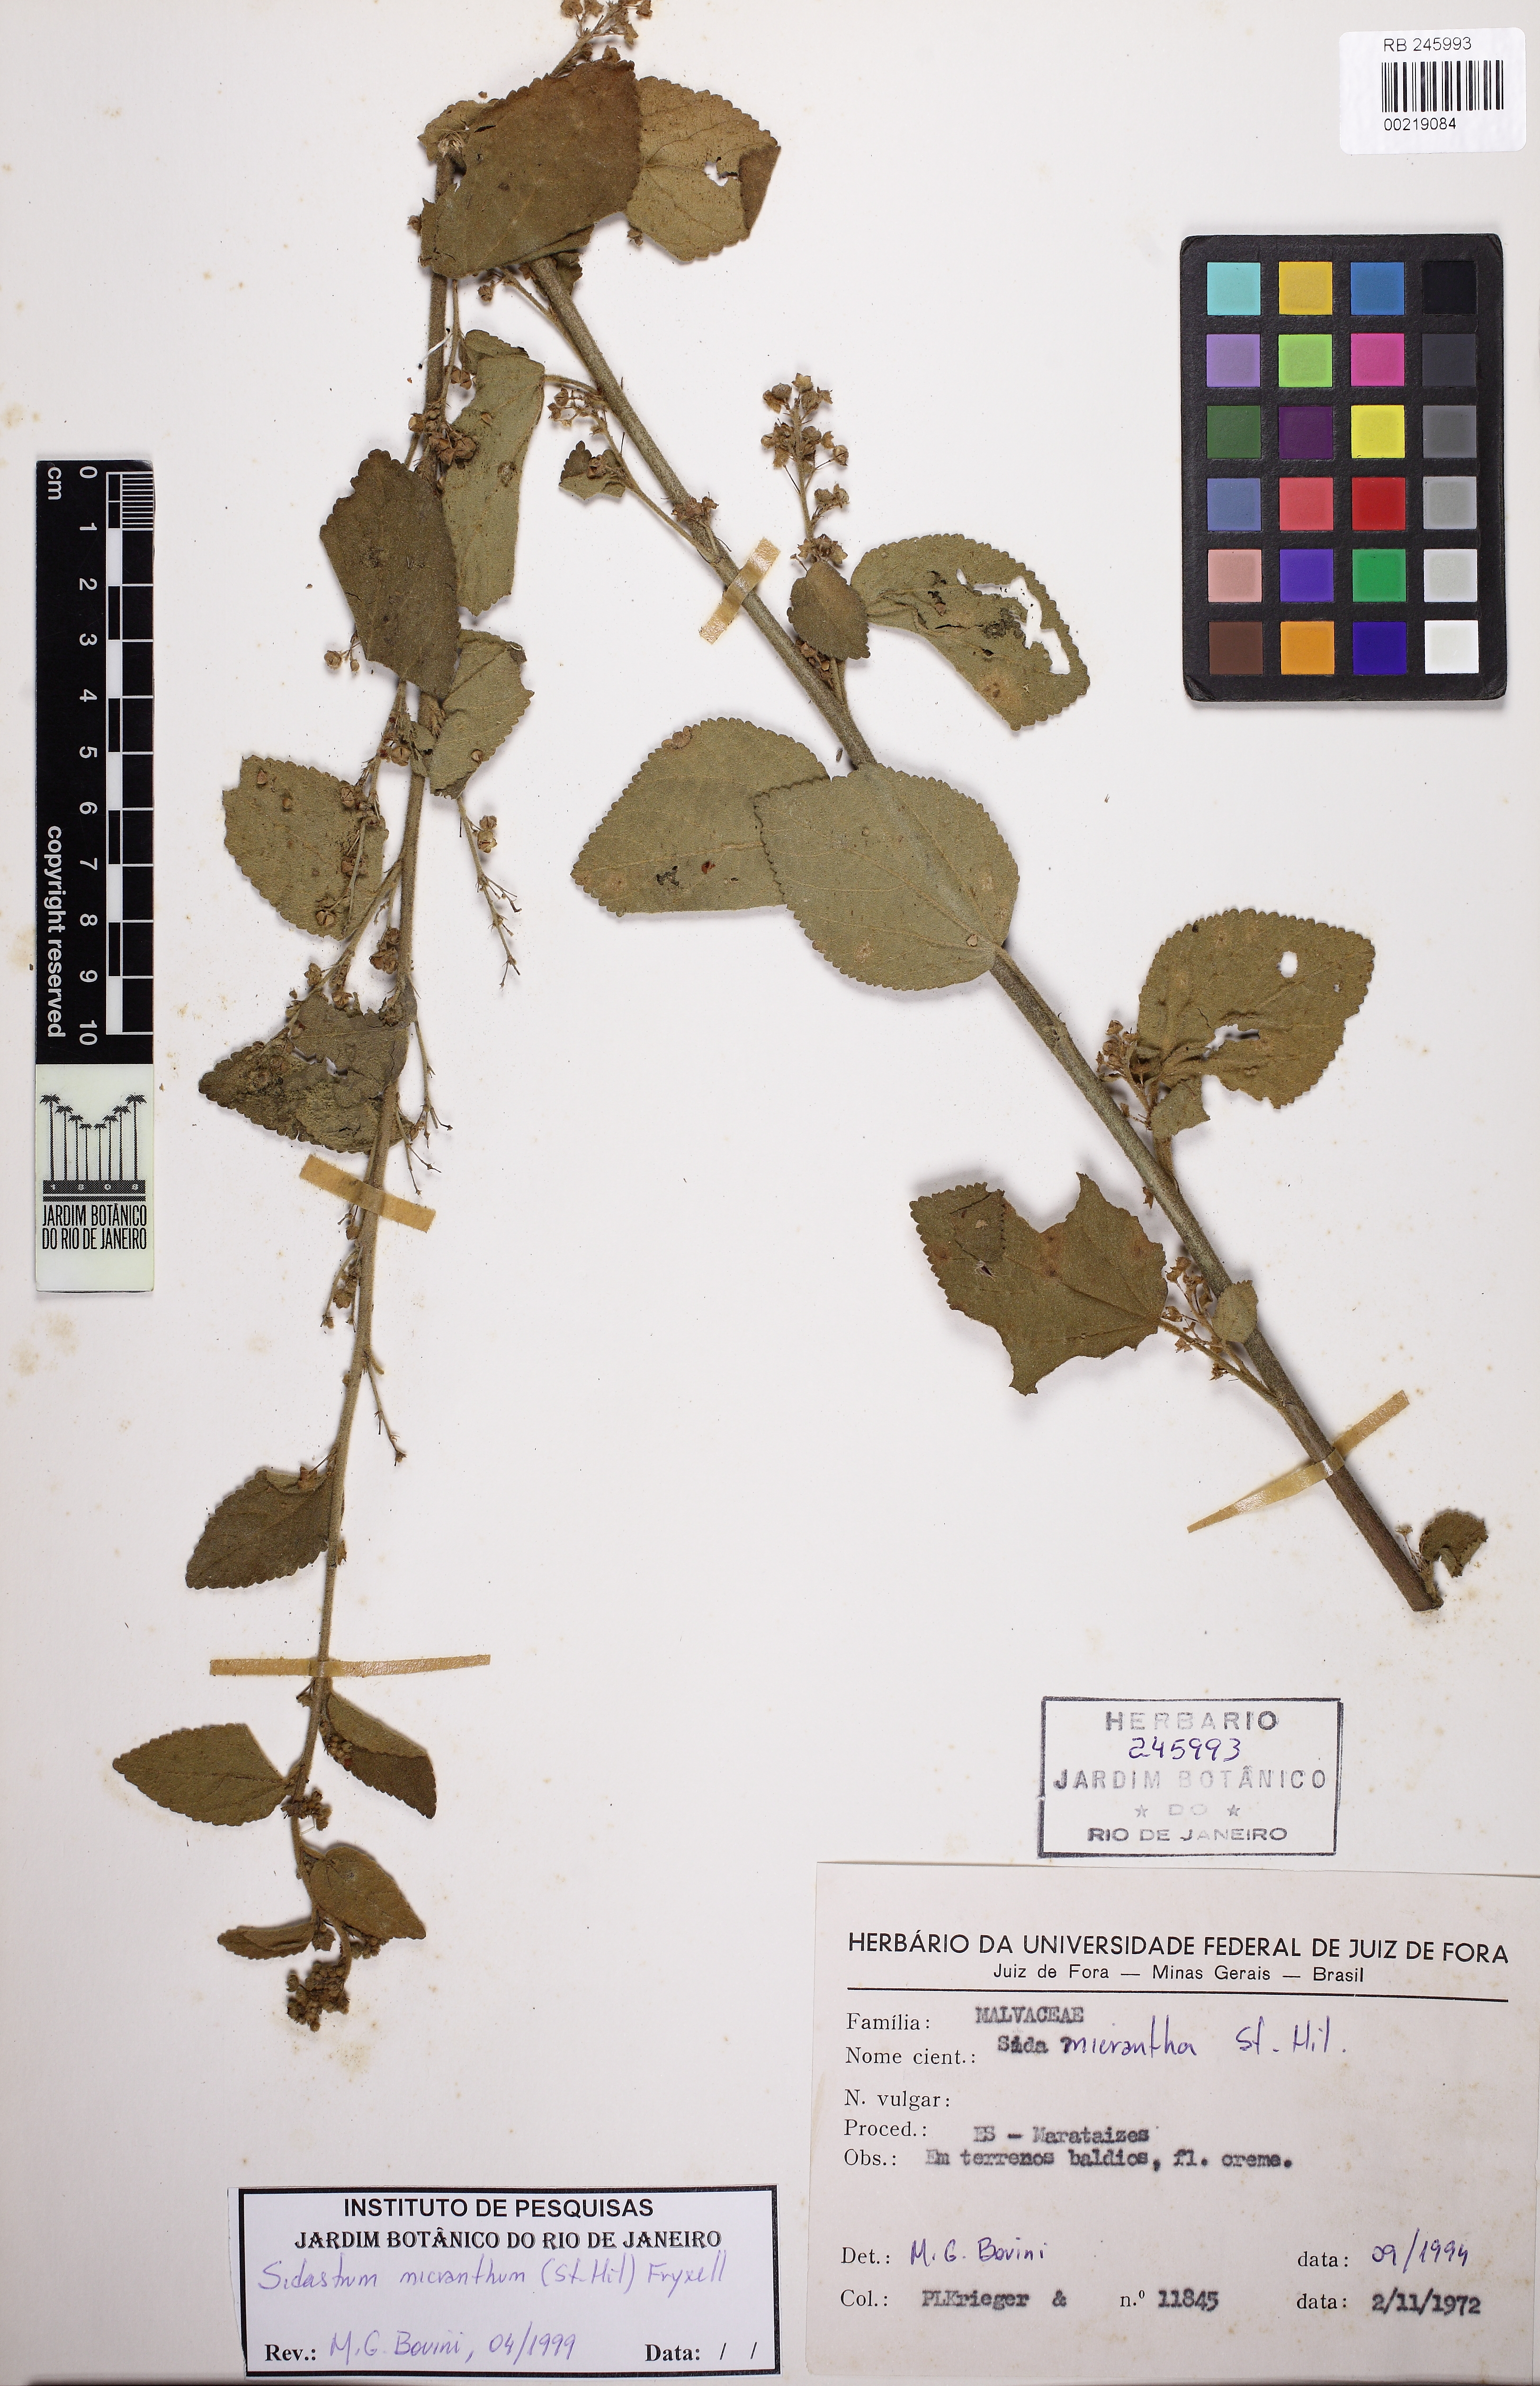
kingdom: Plantae
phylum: Tracheophyta
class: Magnoliopsida
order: Malvales
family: Malvaceae
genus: Sidastrum
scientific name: Sidastrum micranthum
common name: Dainty sandmallow
